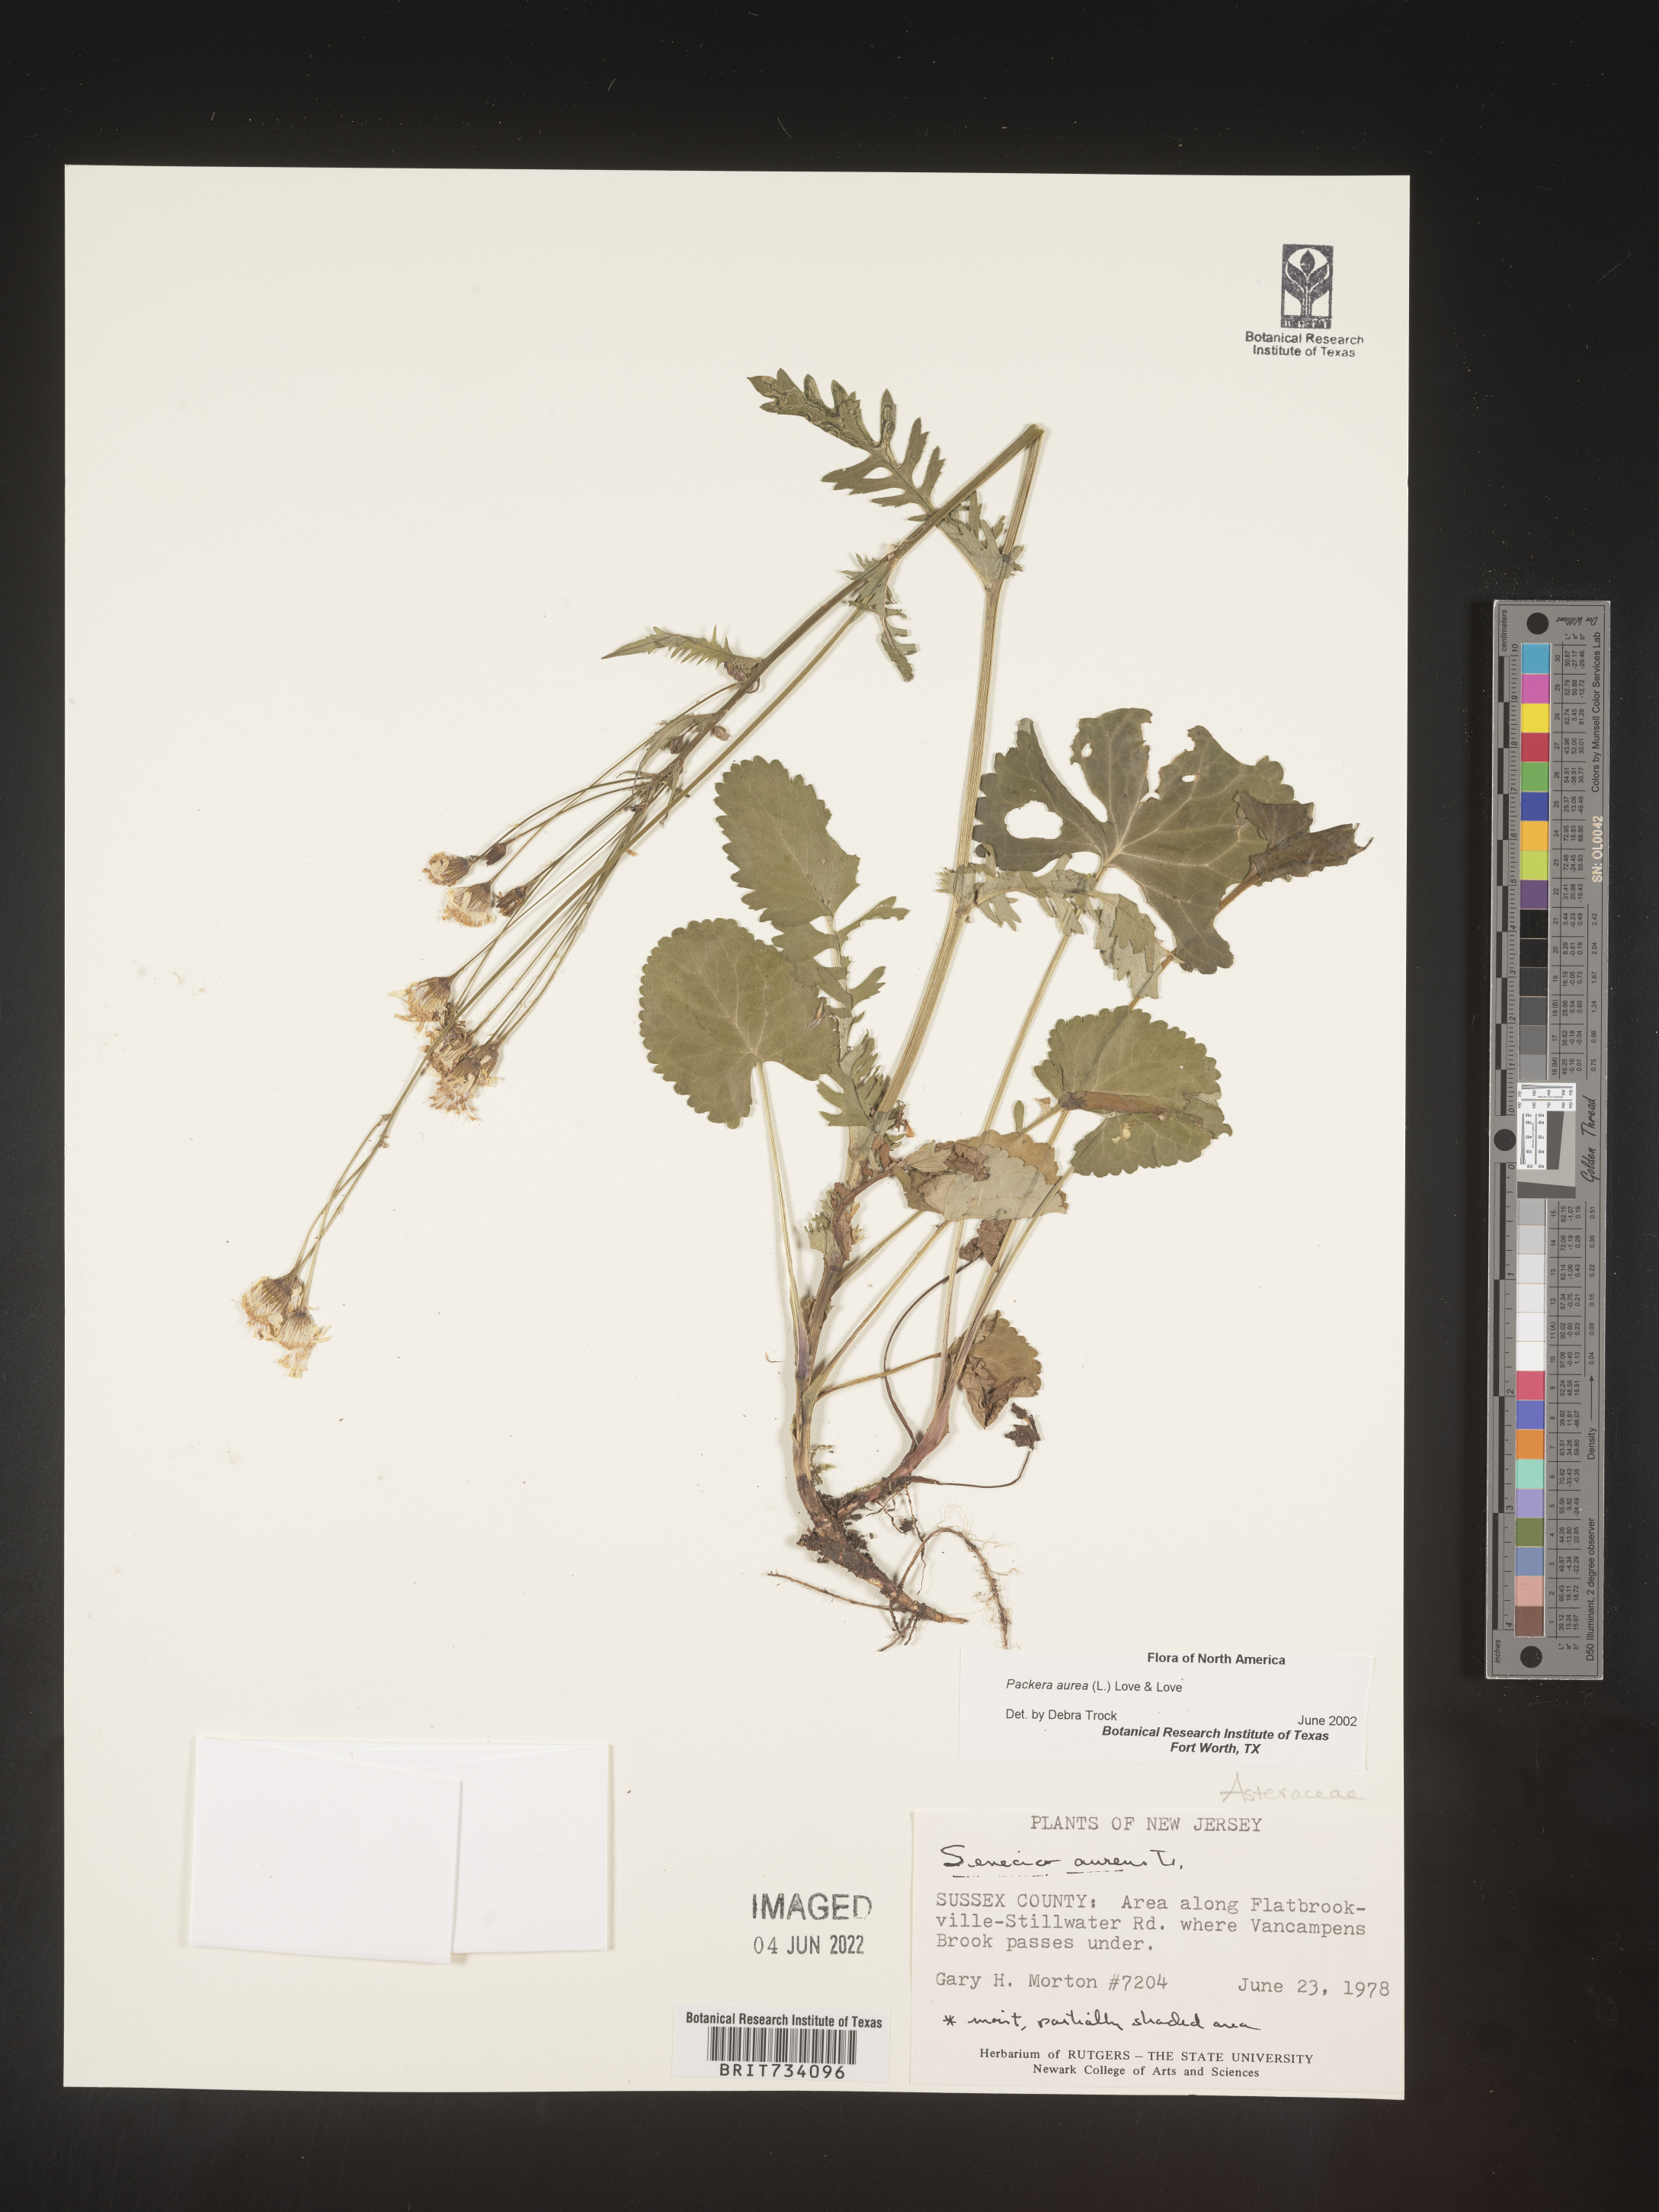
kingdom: Plantae
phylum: Tracheophyta
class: Magnoliopsida
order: Asterales
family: Asteraceae
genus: Packera
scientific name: Packera aurea
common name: Golden groundsel
